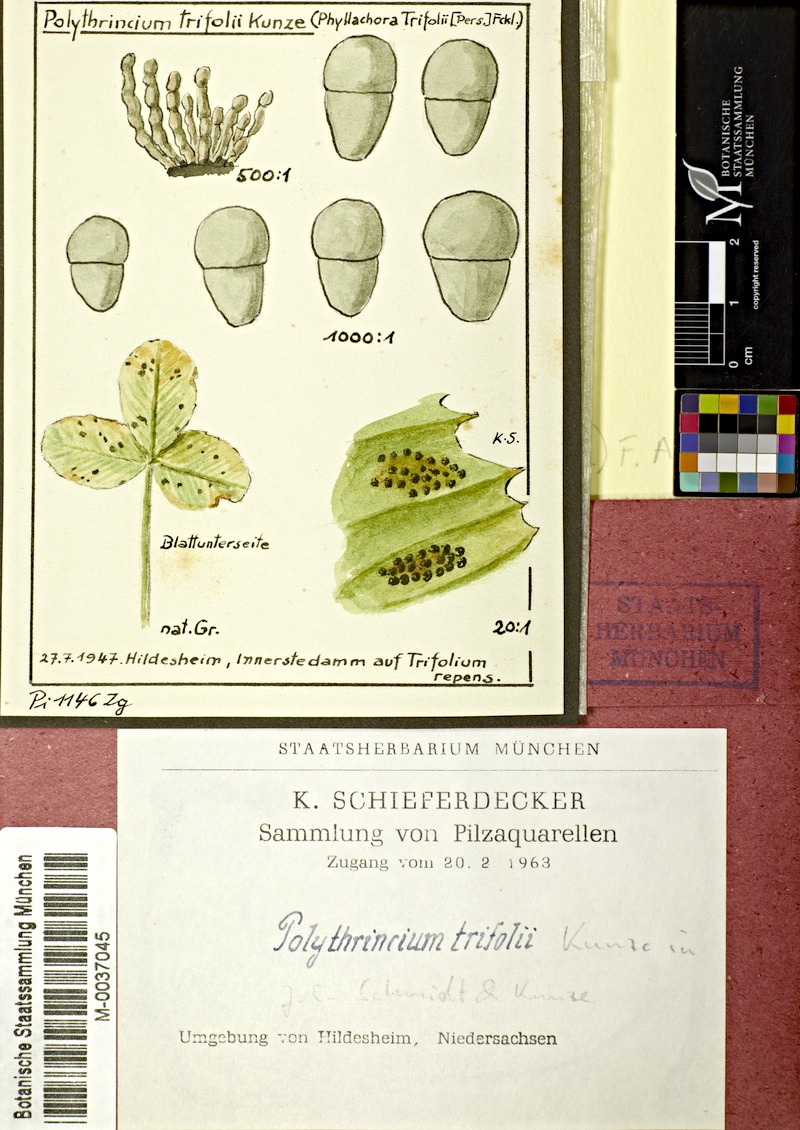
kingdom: Plantae
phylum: Tracheophyta
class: Magnoliopsida
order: Fabales
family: Fabaceae
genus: Trifolium
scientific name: Trifolium repens
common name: White clover
